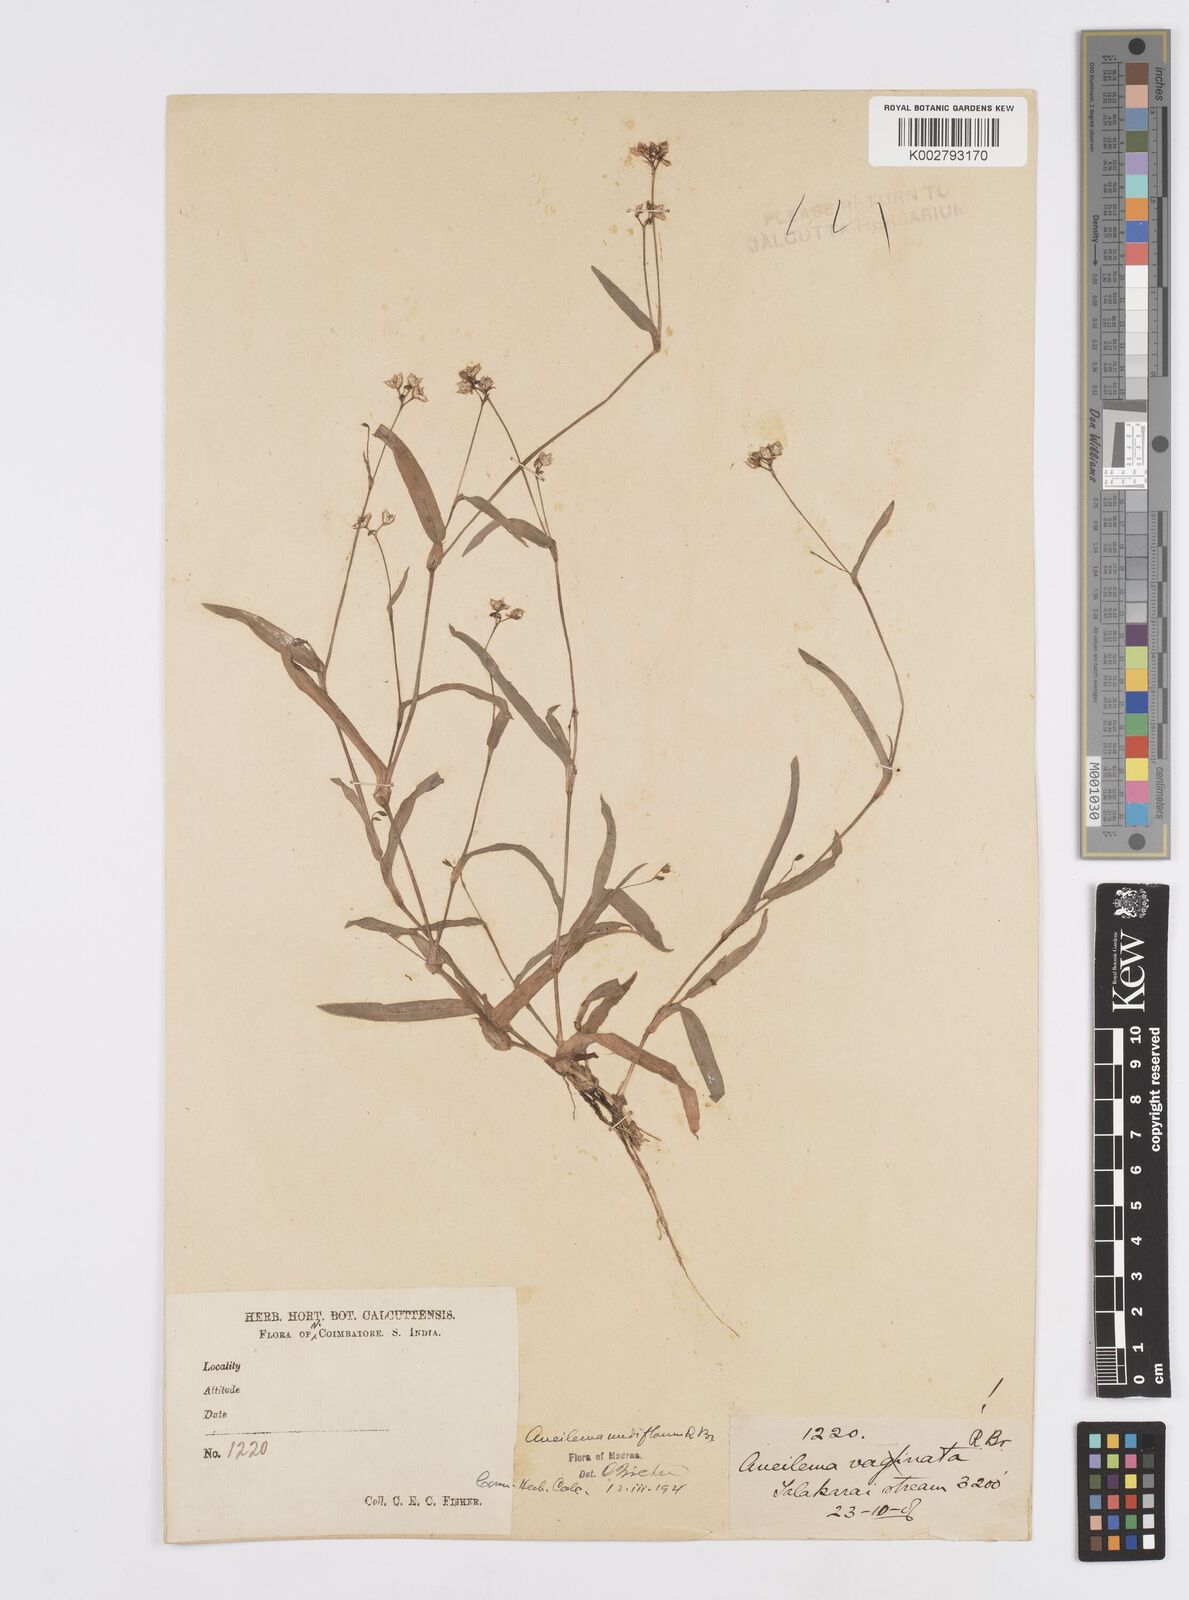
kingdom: Plantae
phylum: Tracheophyta
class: Liliopsida
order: Commelinales
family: Commelinaceae
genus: Murdannia
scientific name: Murdannia nudiflora
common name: Nakedstem dewflower
